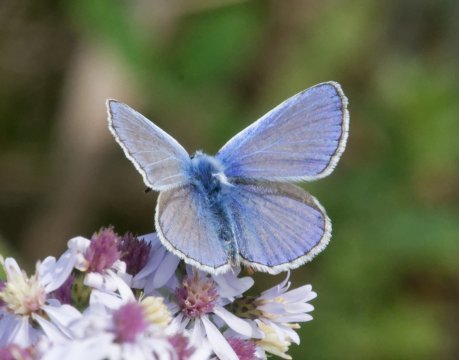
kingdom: Animalia
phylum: Arthropoda
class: Insecta
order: Lepidoptera
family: Lycaenidae
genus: Polyommatus
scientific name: Polyommatus icarus
